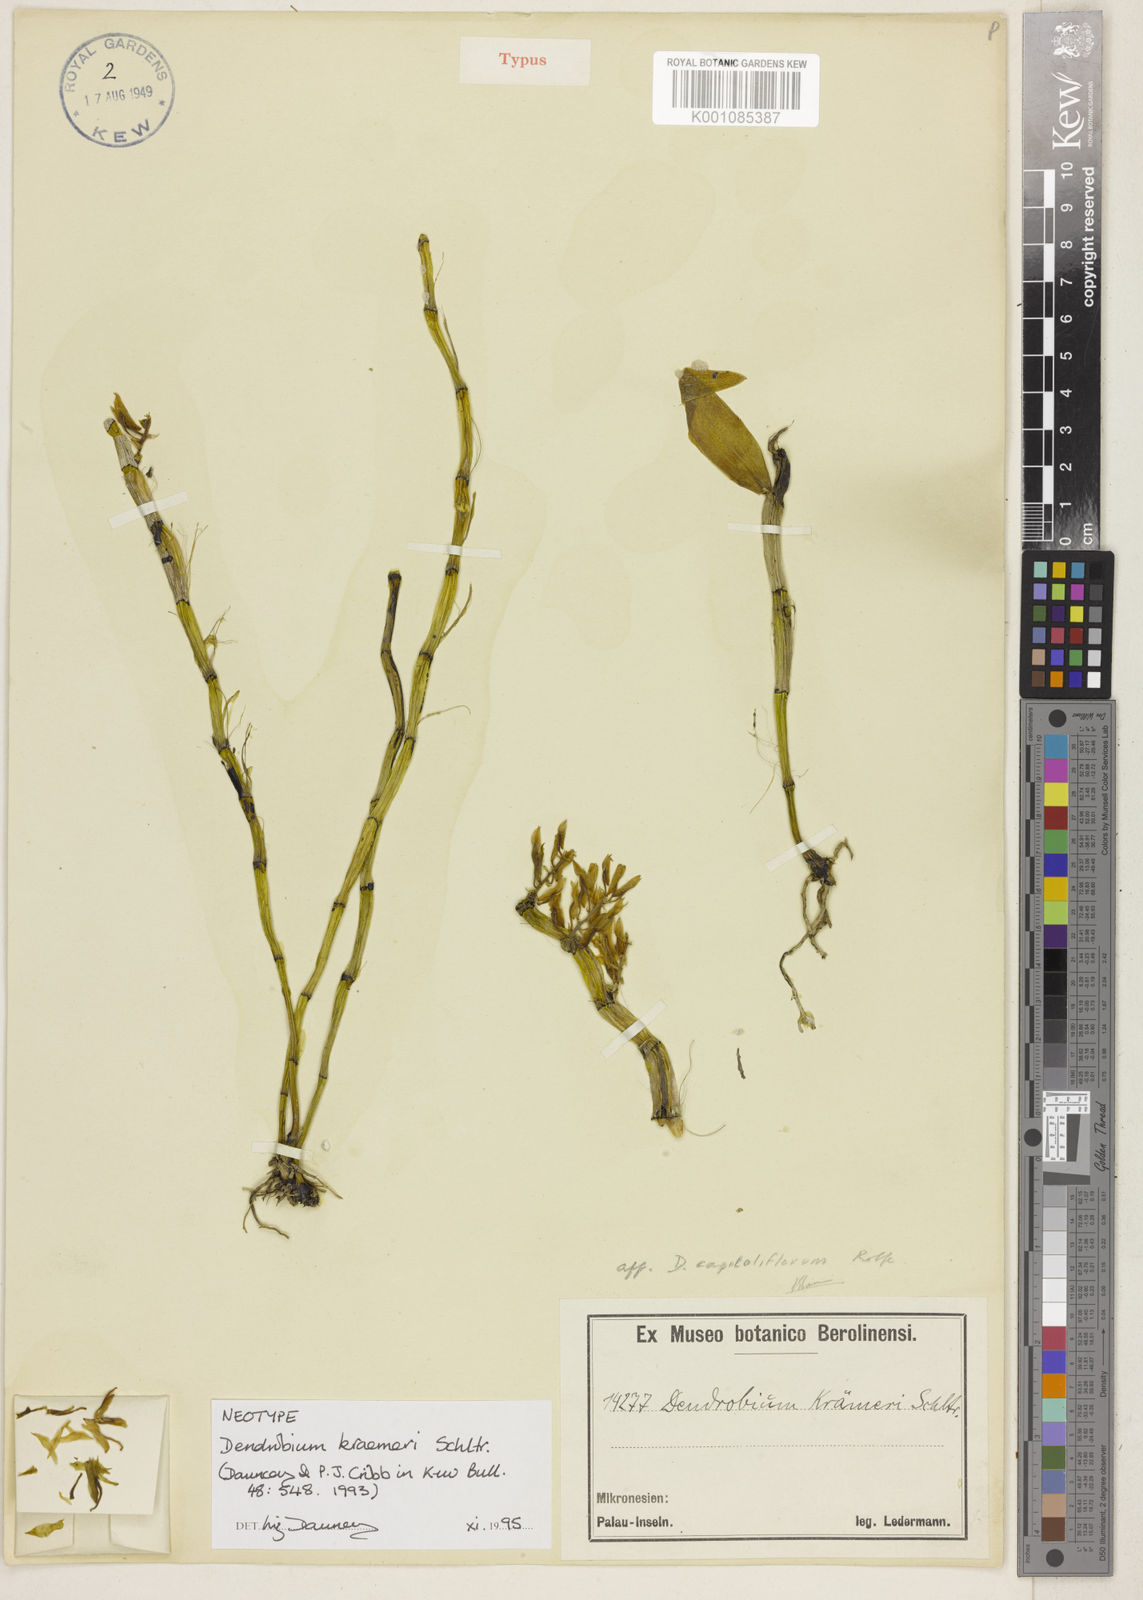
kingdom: Plantae
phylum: Tracheophyta
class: Liliopsida
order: Asparagales
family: Orchidaceae
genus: Dendrobium
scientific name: Dendrobium kraemeri
